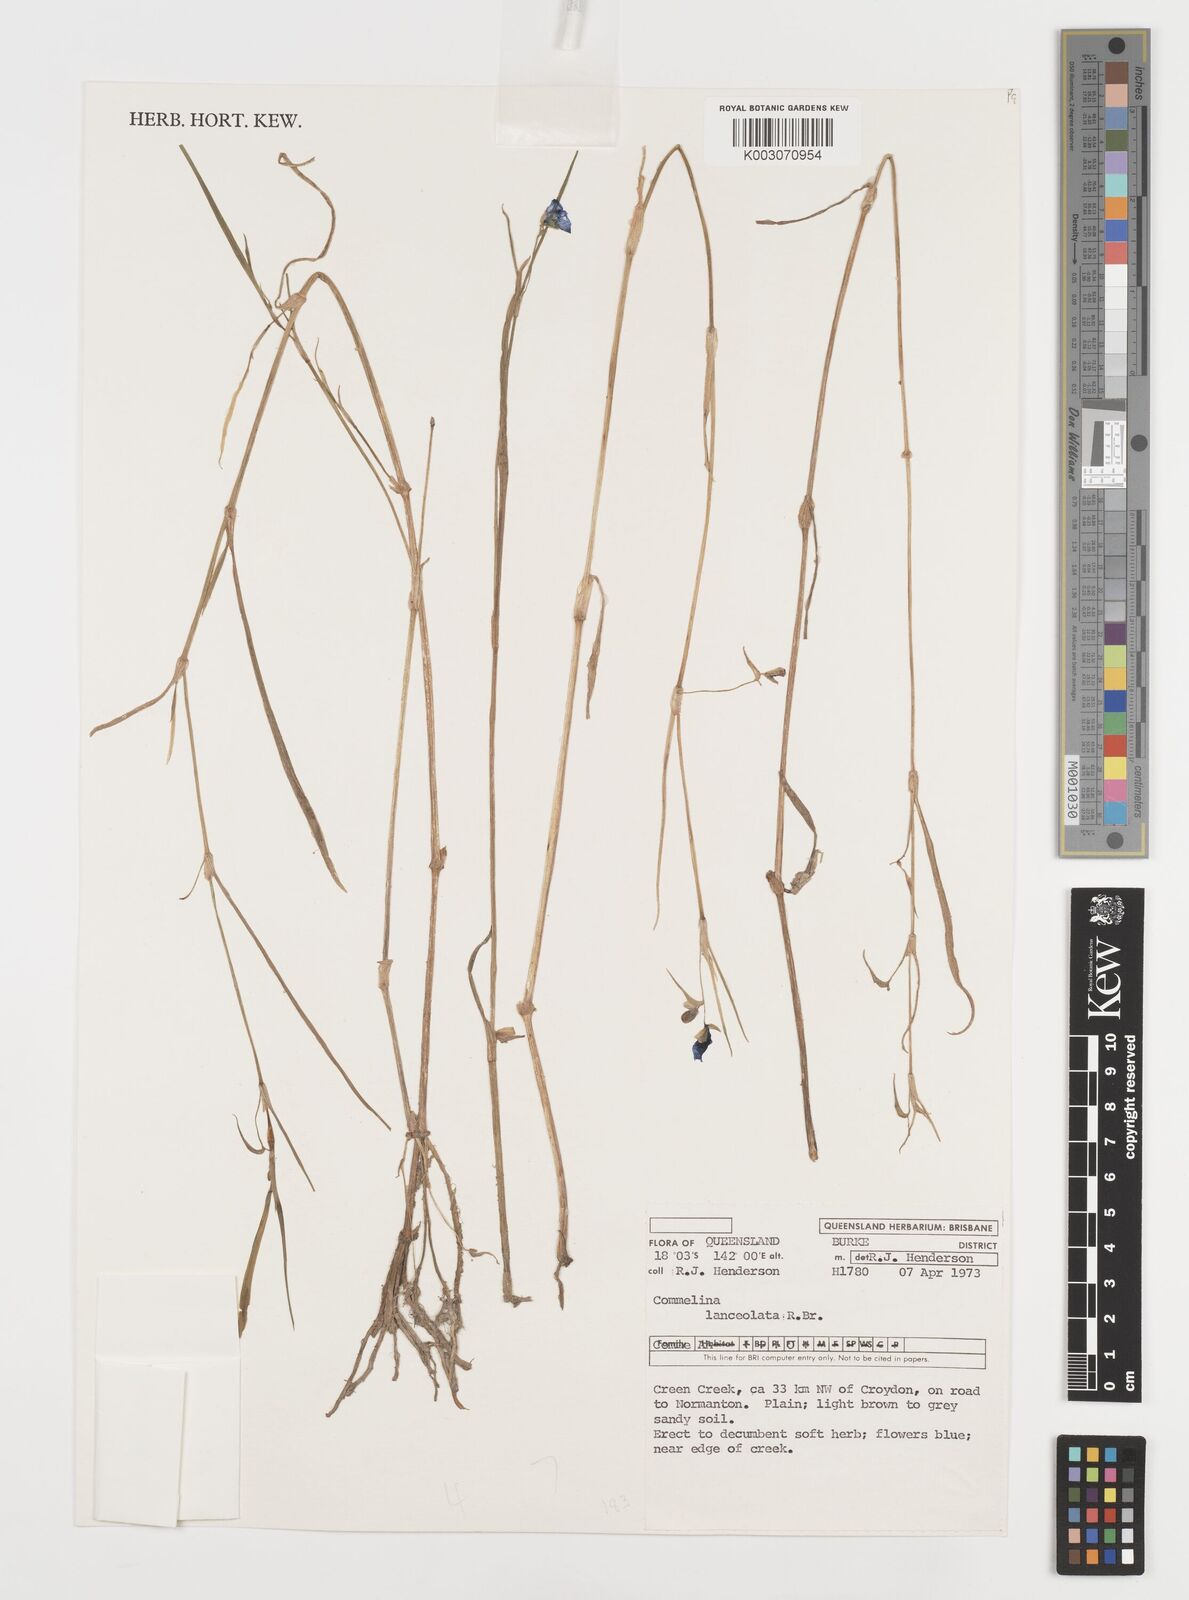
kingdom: Plantae
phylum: Tracheophyta
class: Liliopsida
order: Commelinales
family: Commelinaceae
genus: Commelina
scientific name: Commelina lanceolata
